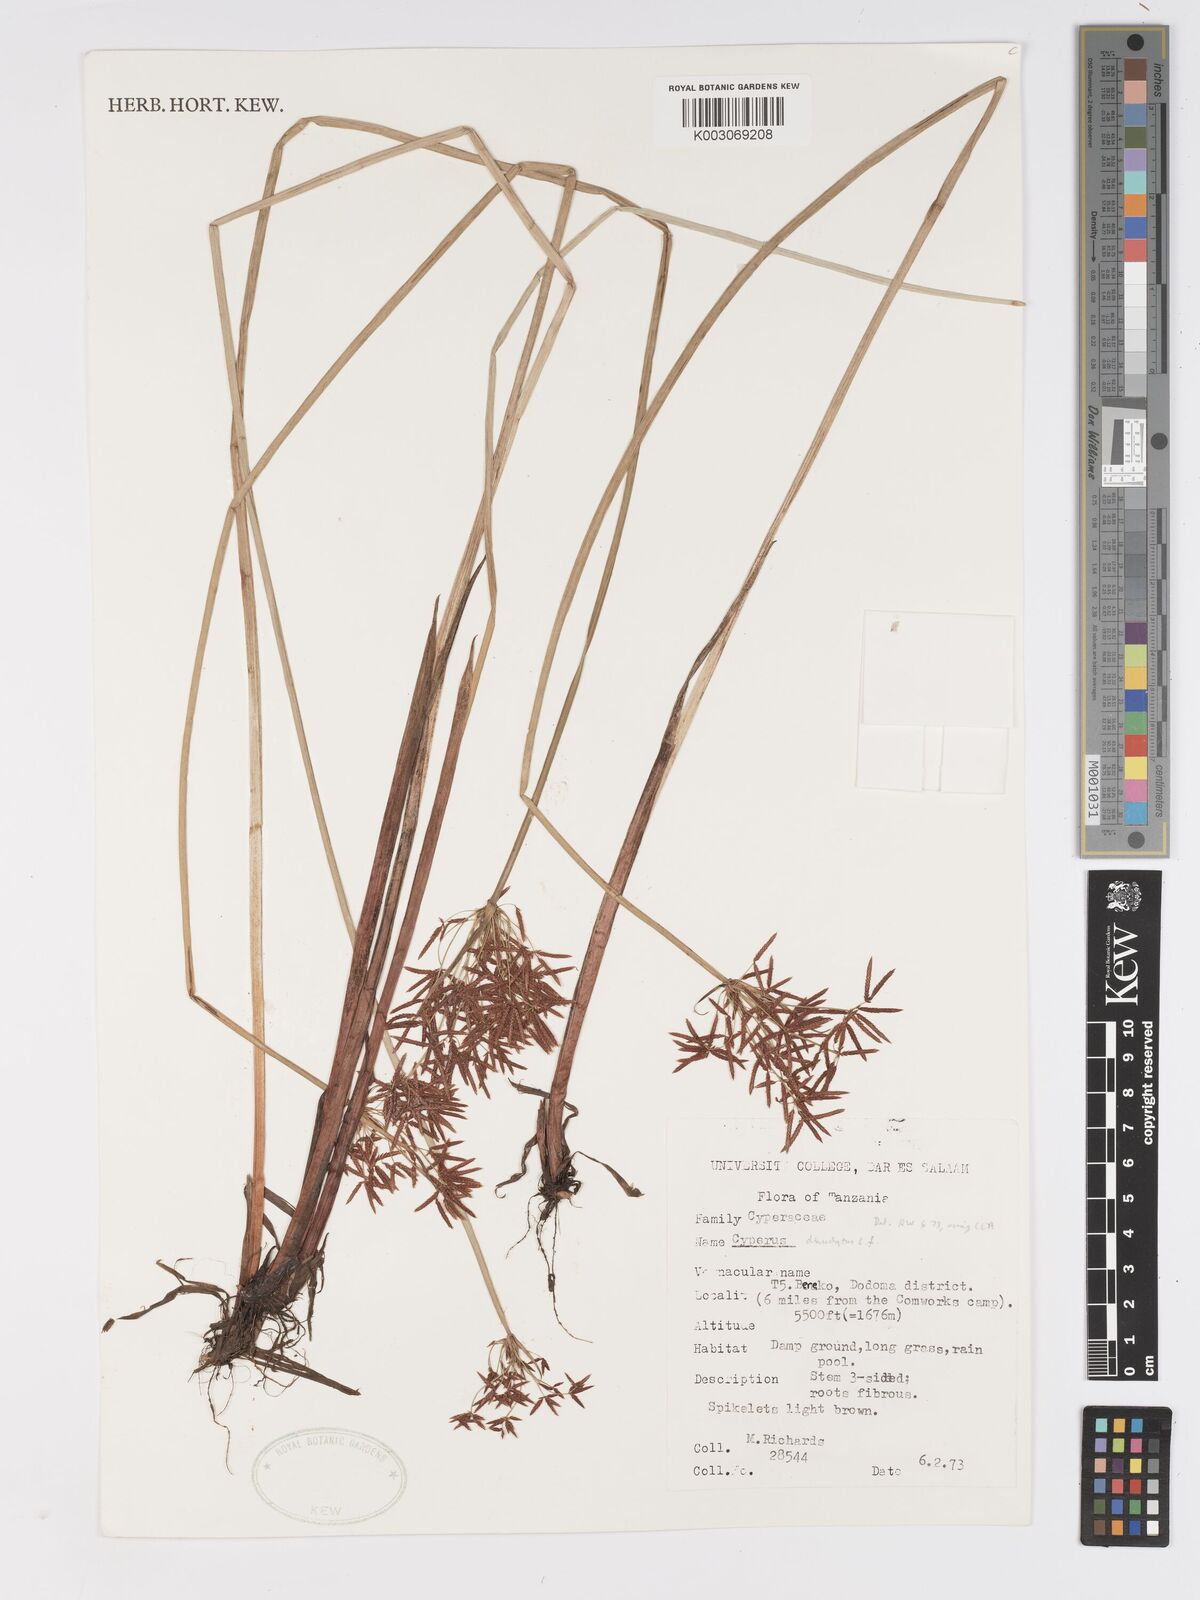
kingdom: Plantae
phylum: Tracheophyta
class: Liliopsida
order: Poales
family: Cyperaceae
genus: Cyperus
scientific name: Cyperus denudatus
